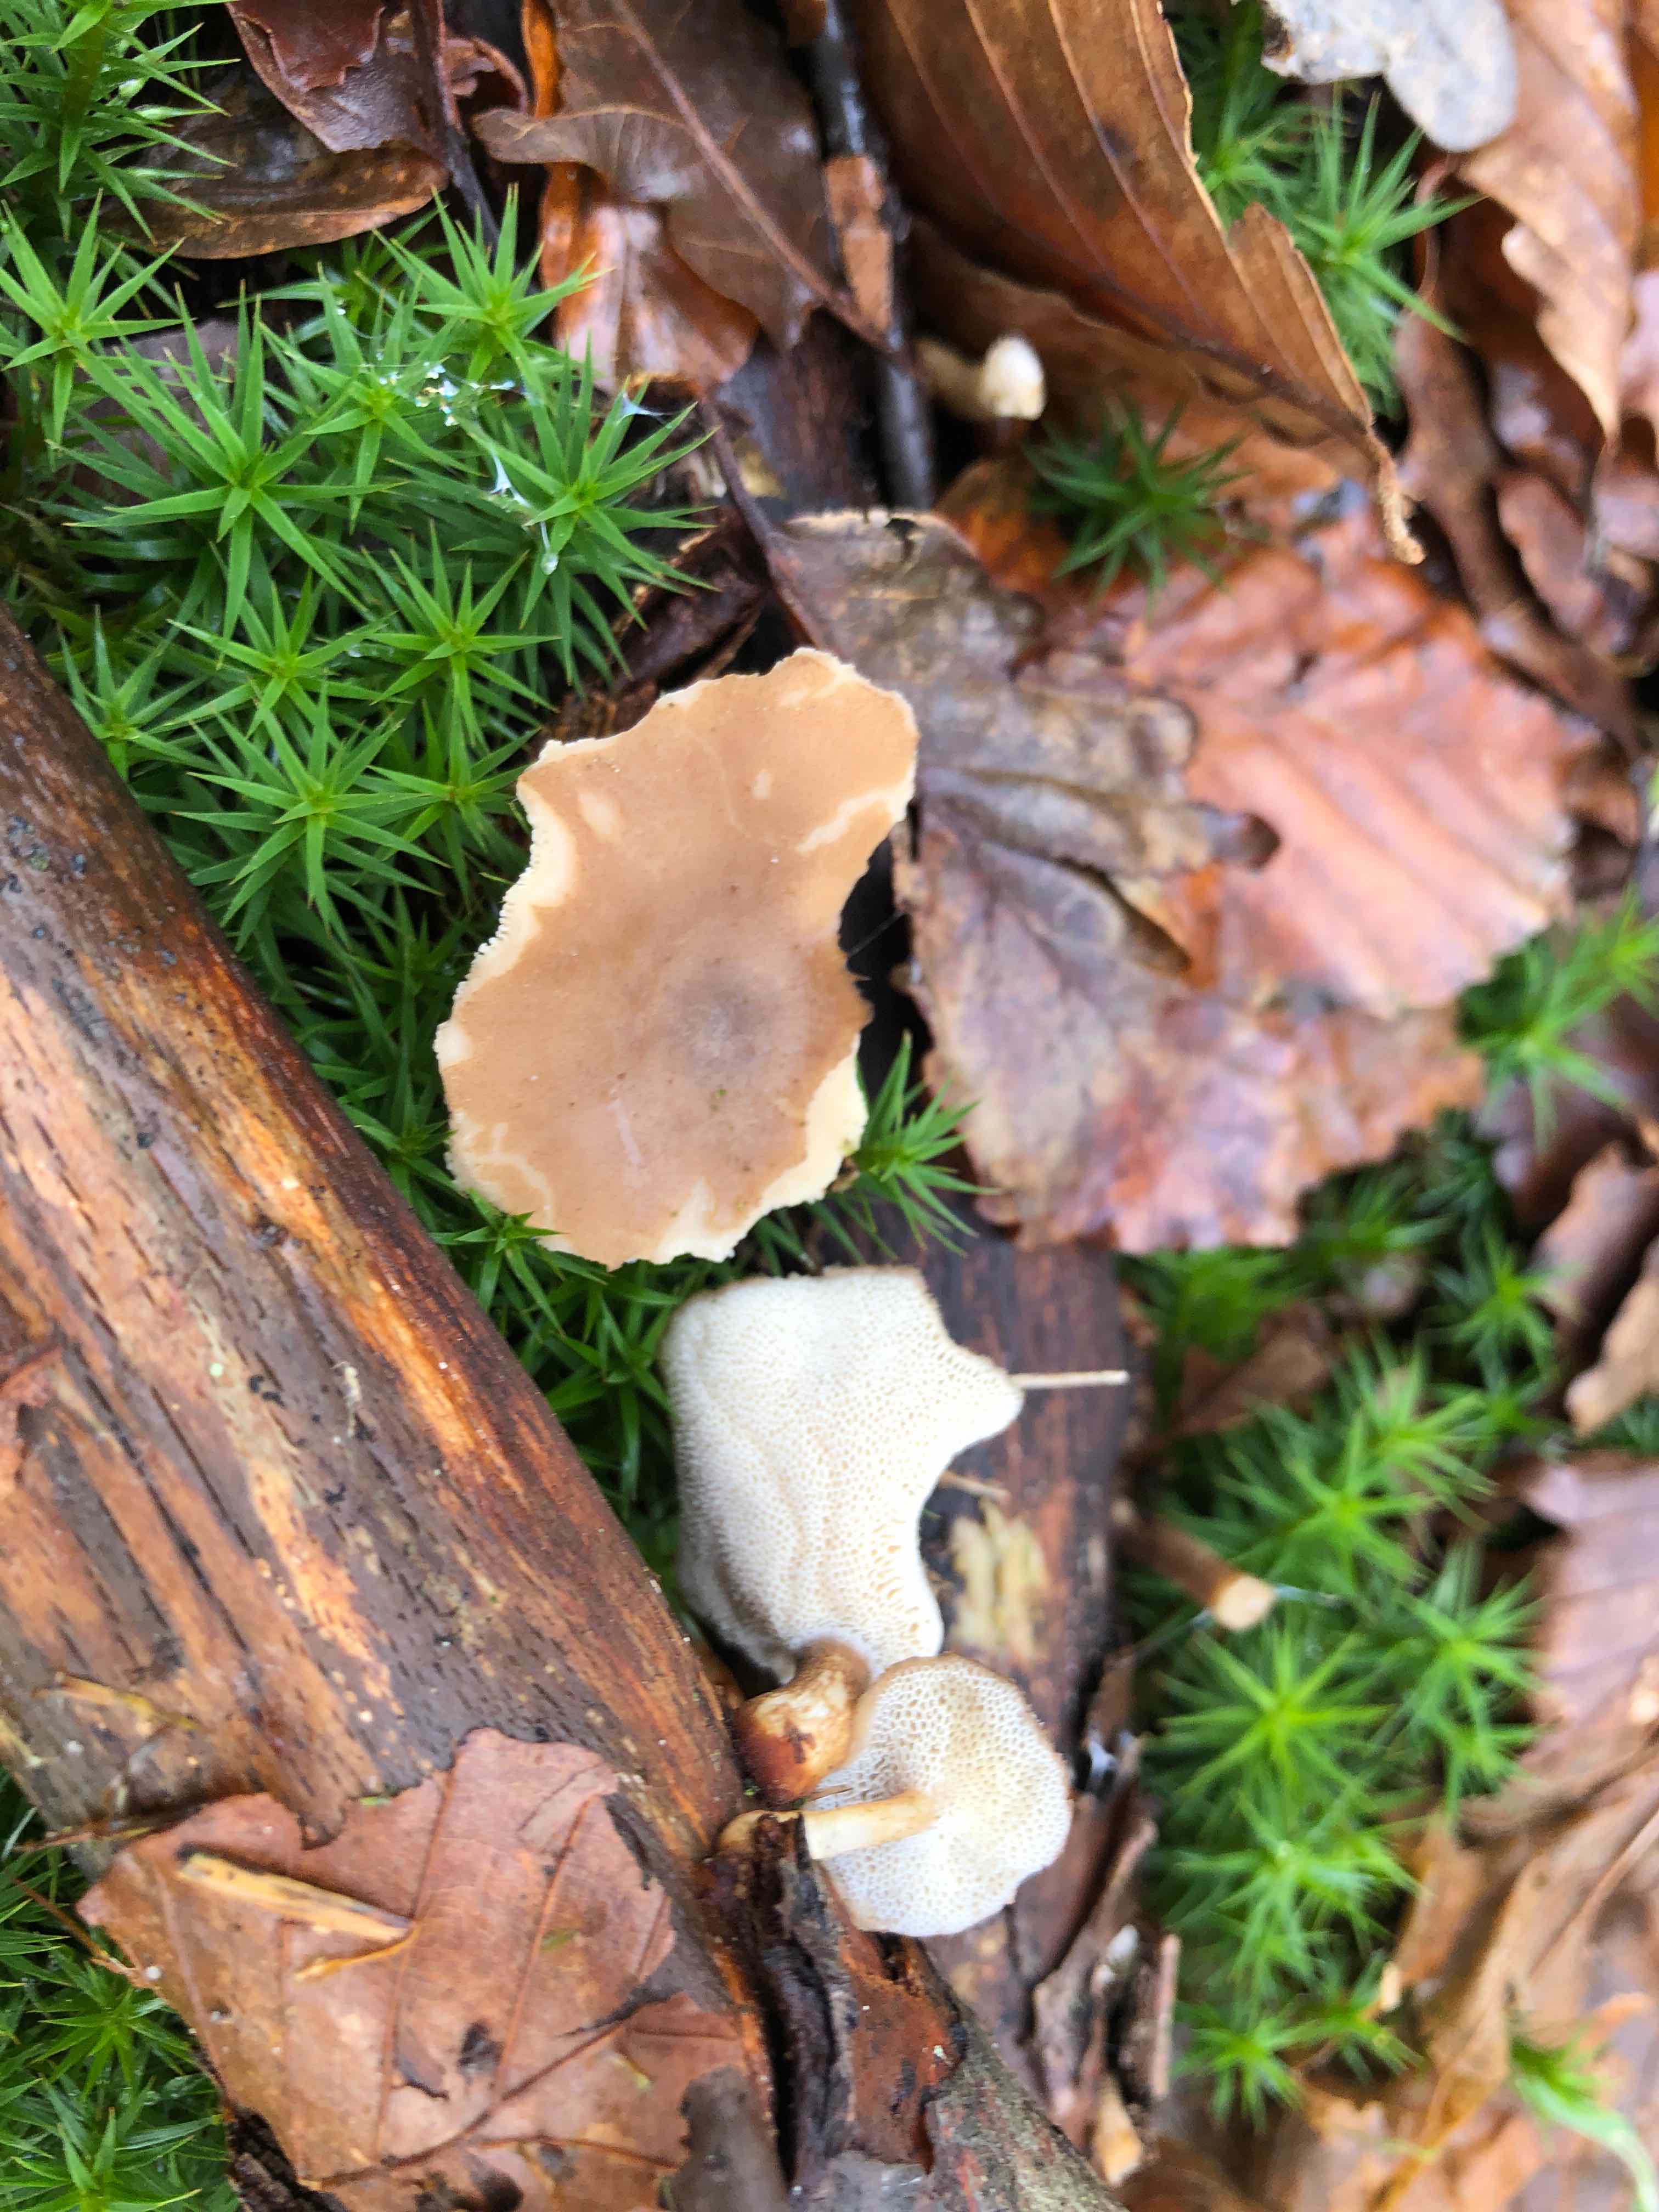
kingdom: Fungi
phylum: Basidiomycota
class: Agaricomycetes
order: Polyporales
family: Polyporaceae
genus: Lentinus
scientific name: Lentinus brumalis
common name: vinter-stilkporesvamp
